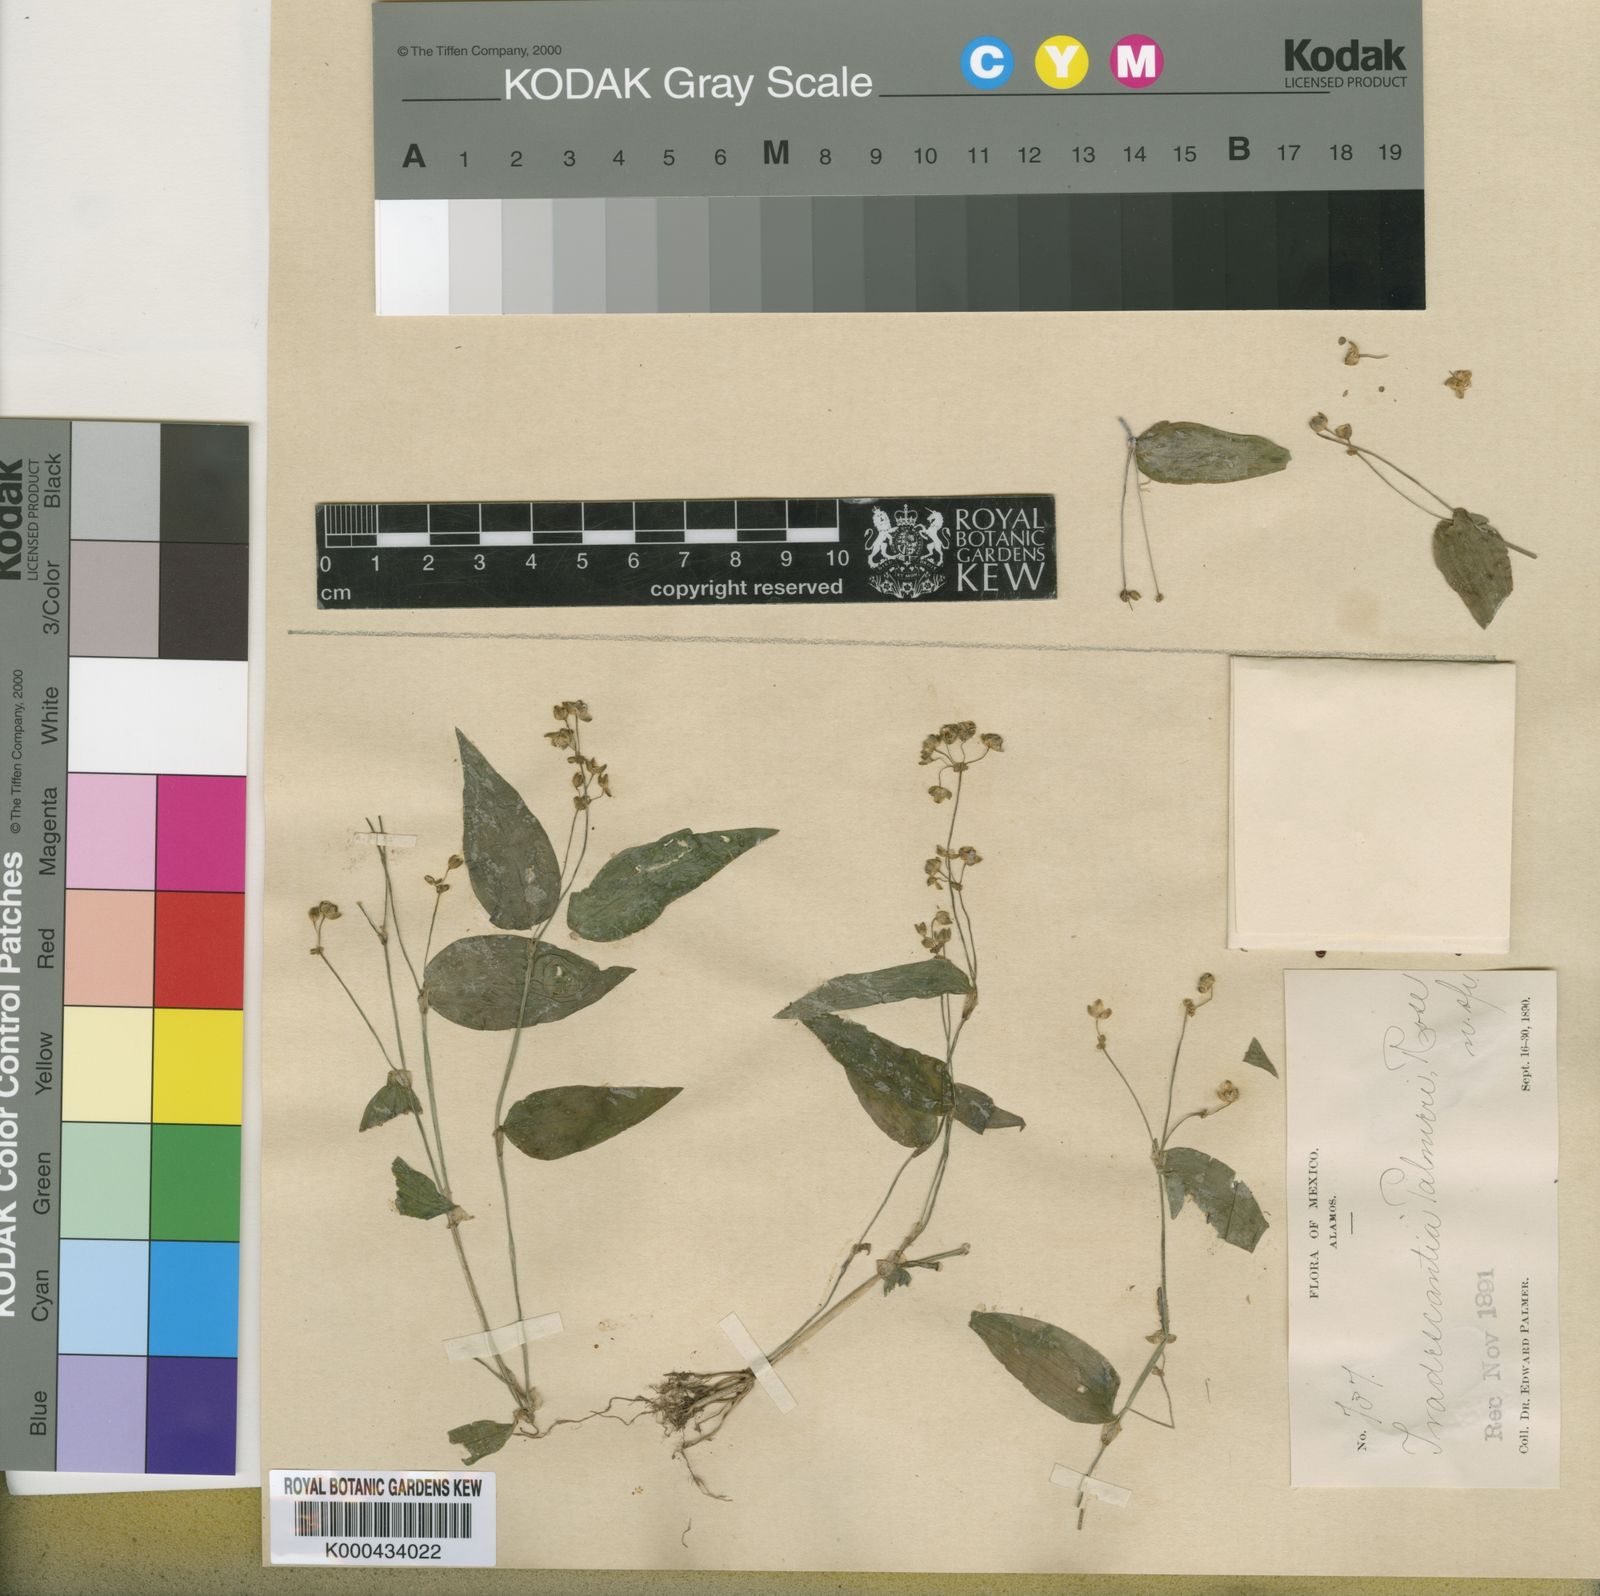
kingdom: Plantae
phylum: Tracheophyta
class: Liliopsida
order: Commelinales
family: Commelinaceae
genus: Callisia
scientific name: Callisia palmeri
